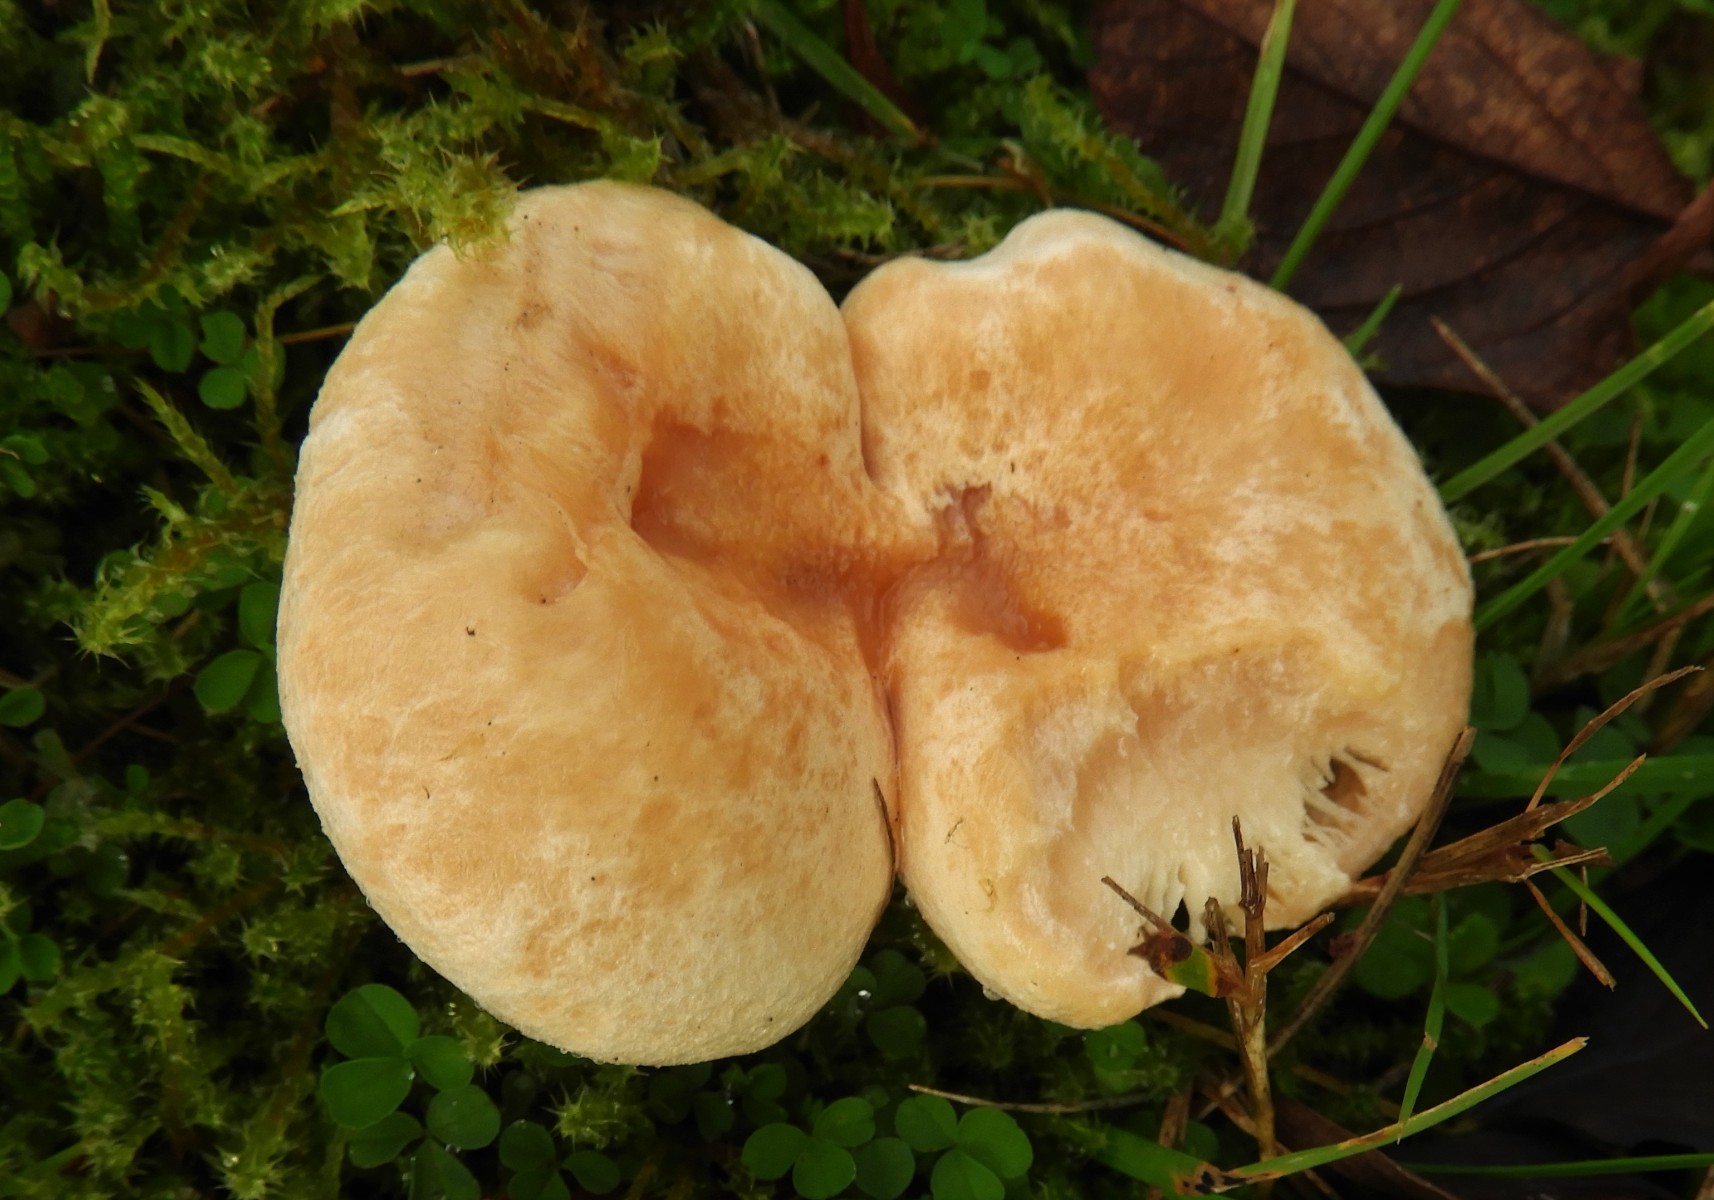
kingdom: Fungi
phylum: Basidiomycota
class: Agaricomycetes
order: Russulales
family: Russulaceae
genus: Lactarius
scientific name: Lactarius pubescens
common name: dunet mælkehat
